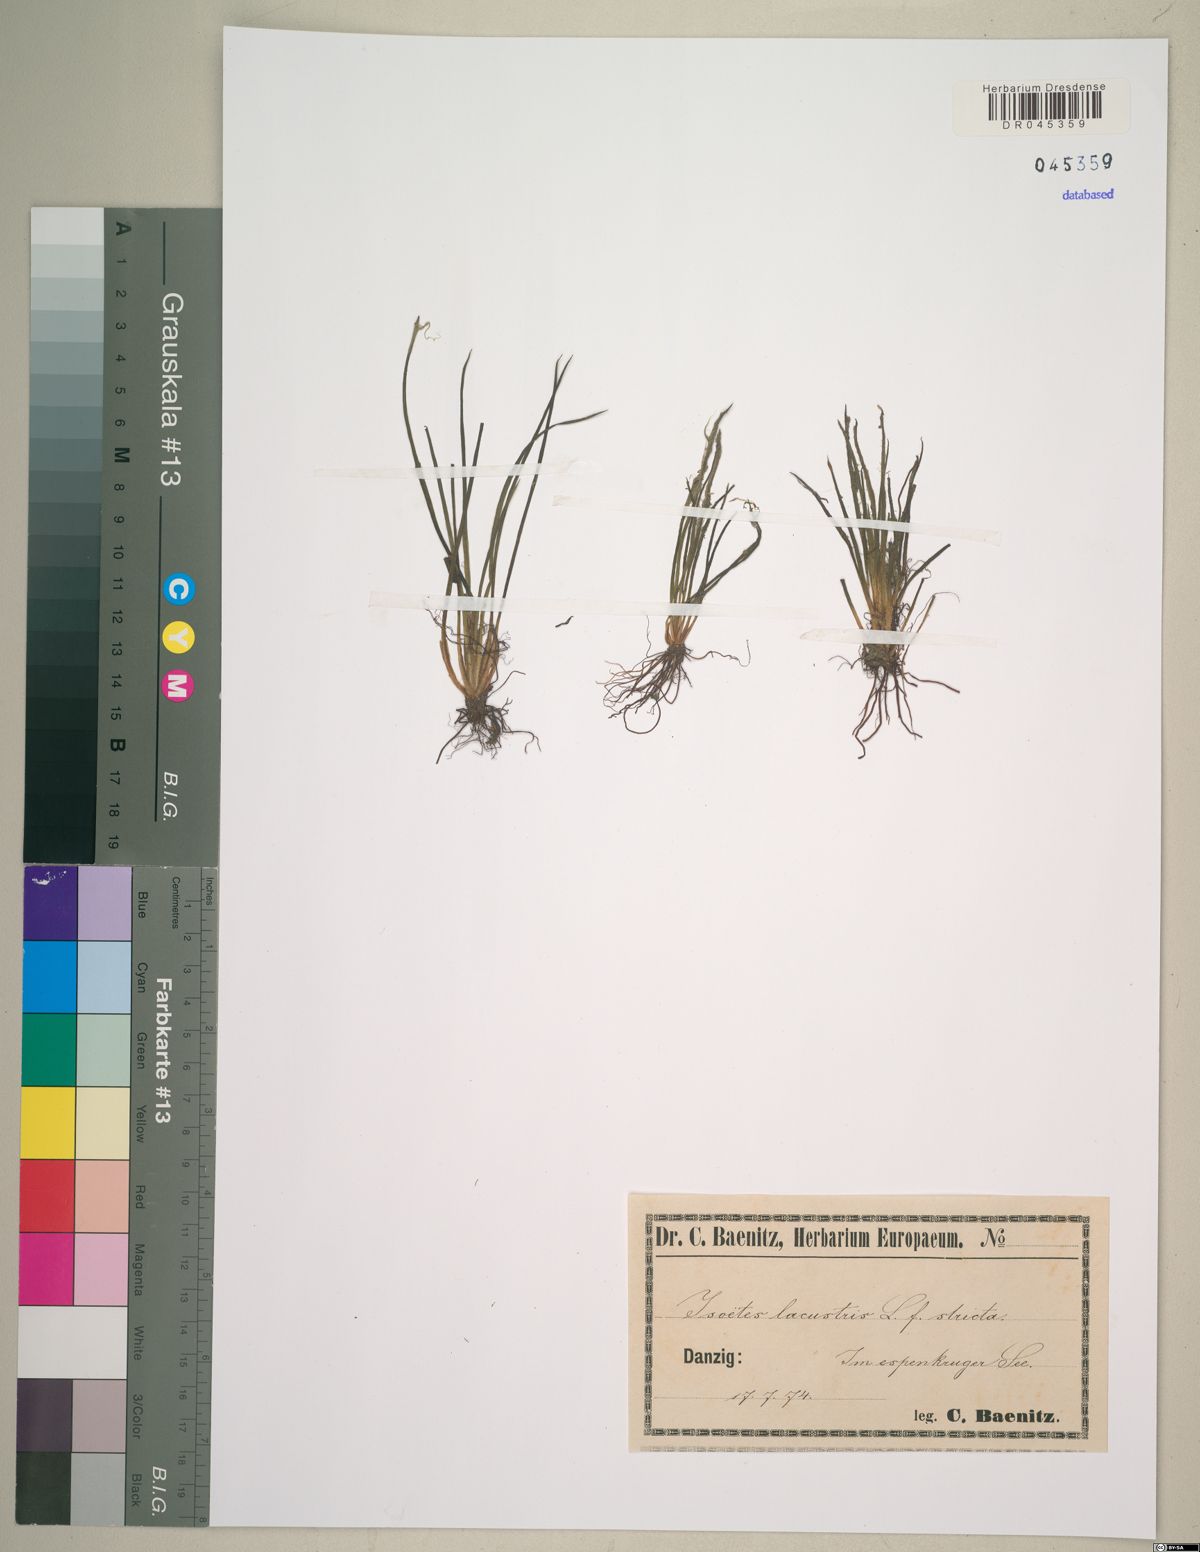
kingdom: Plantae
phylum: Tracheophyta
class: Lycopodiopsida
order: Isoetales
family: Isoetaceae
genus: Isoetes
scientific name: Isoetes lacustris
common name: Common quillwort
